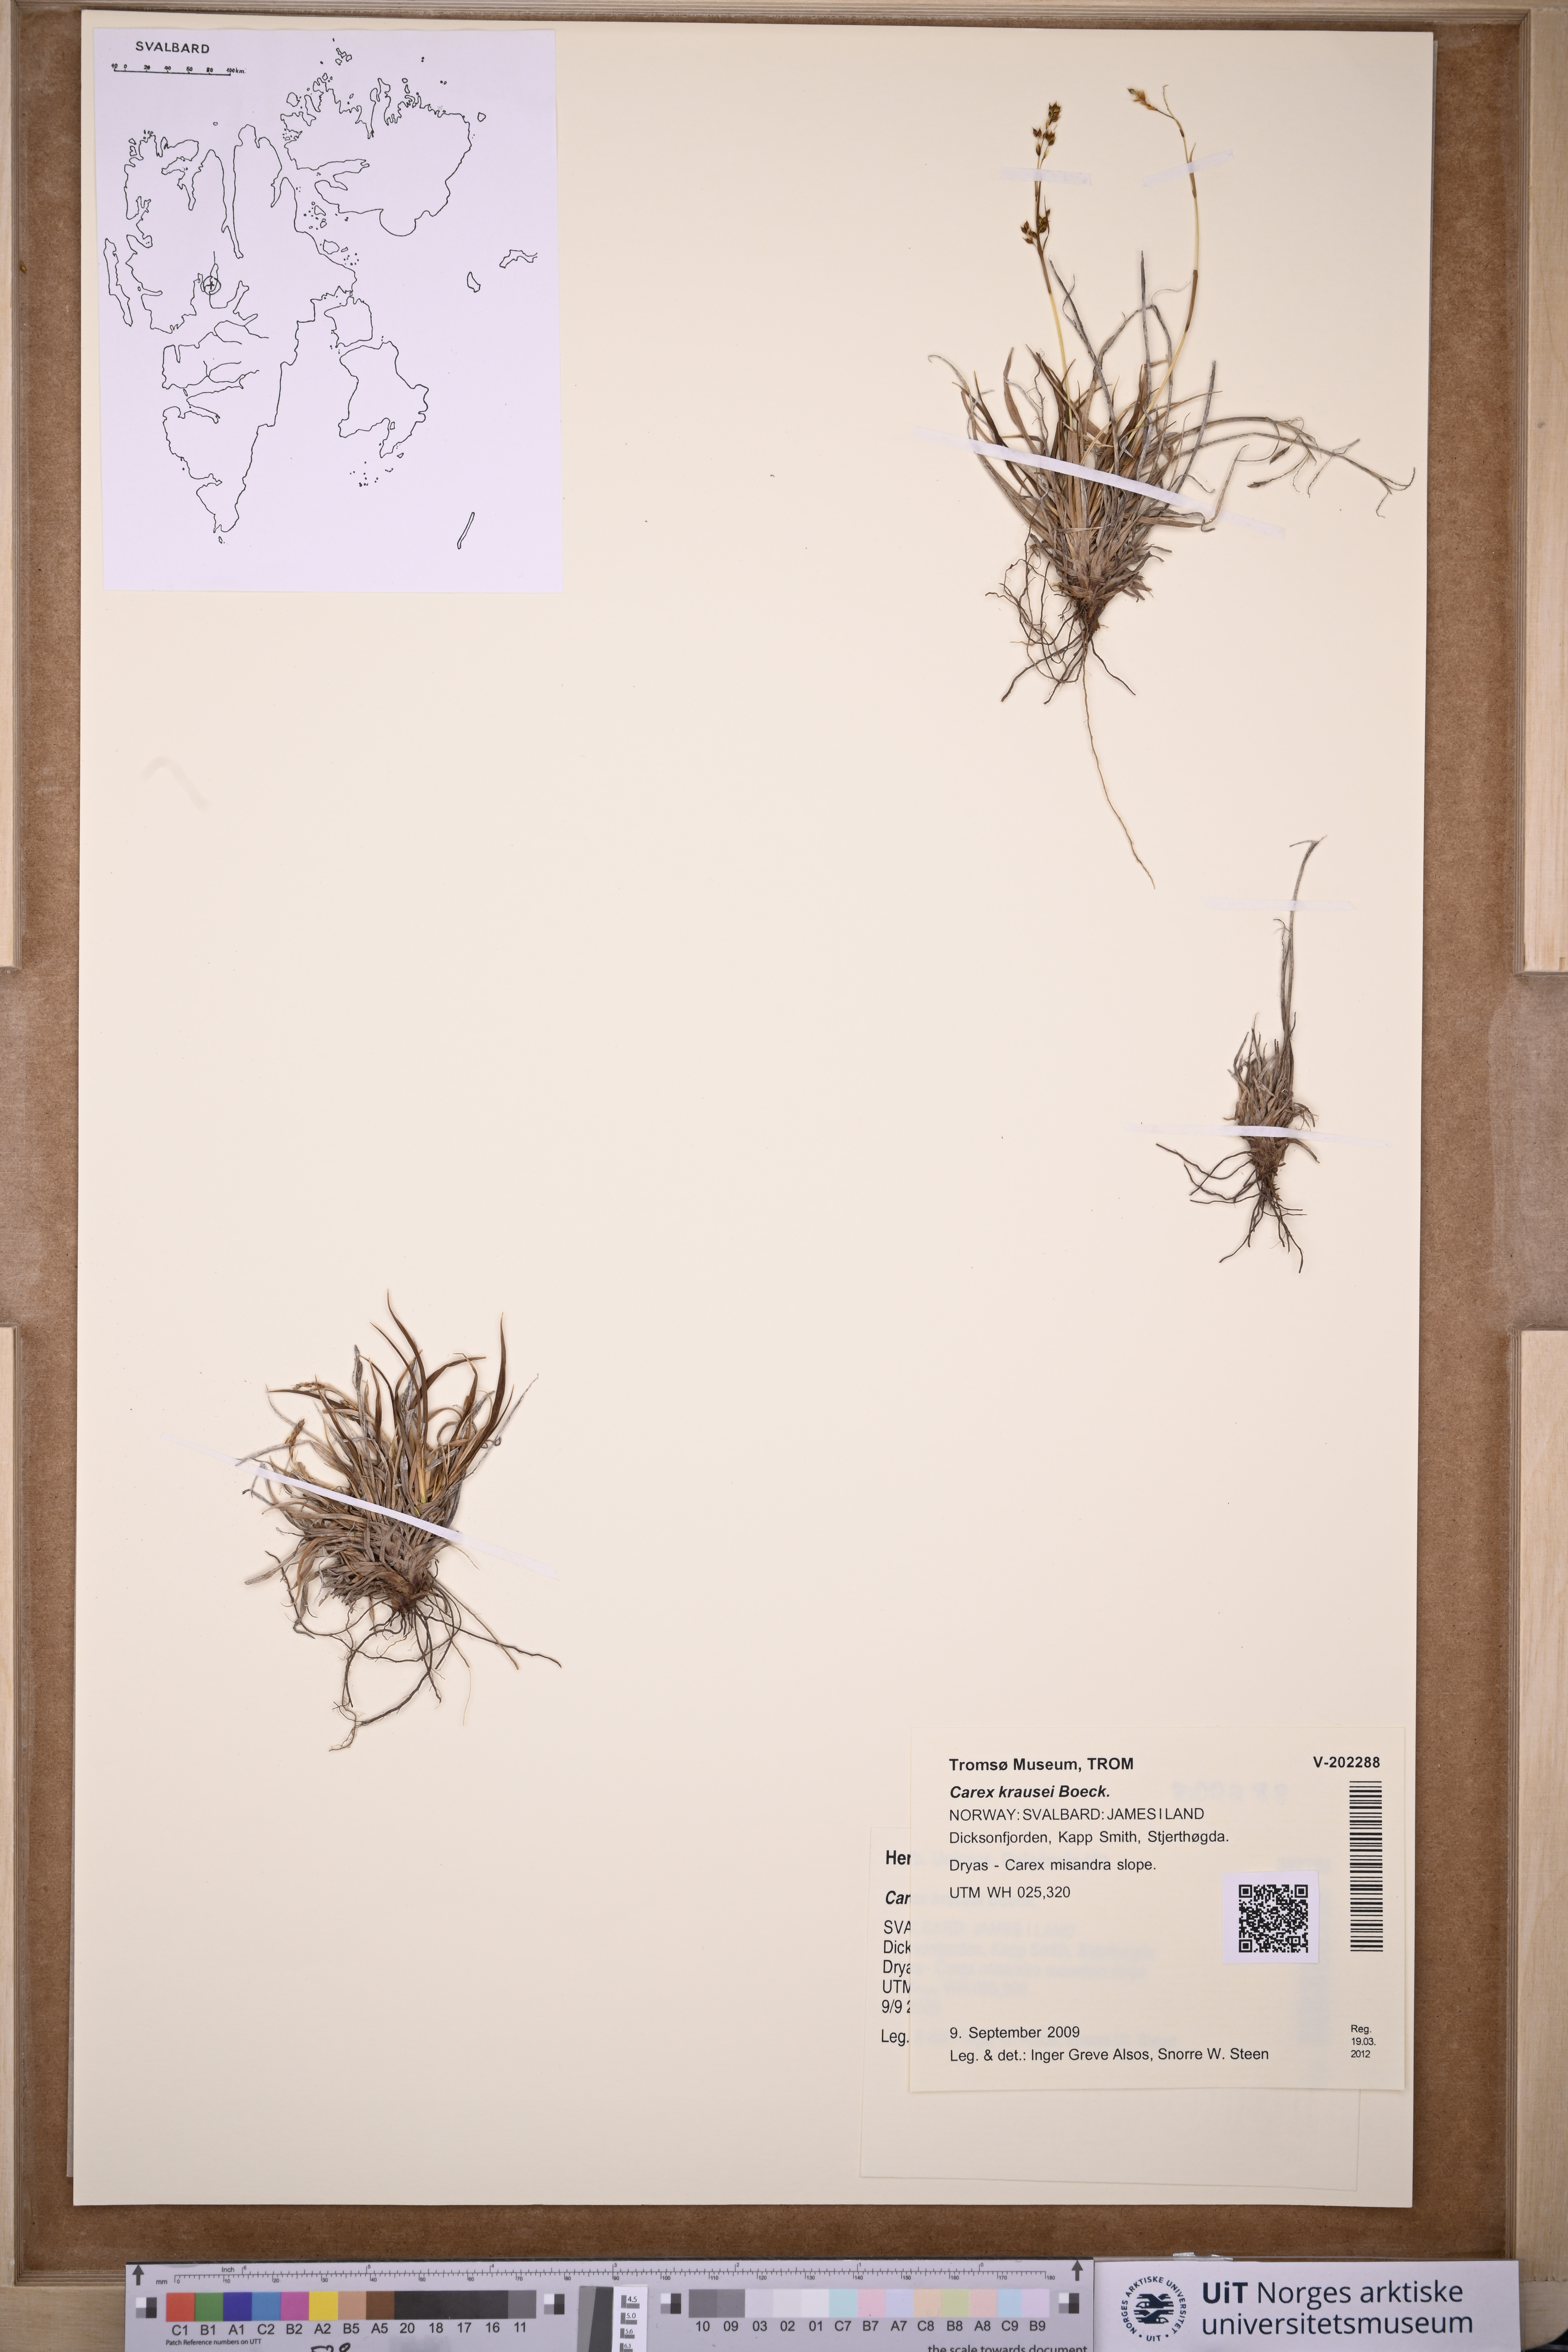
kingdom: Plantae
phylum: Tracheophyta
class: Liliopsida
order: Poales
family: Cyperaceae
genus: Carex
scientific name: Carex krausei
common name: Krause's sedge
